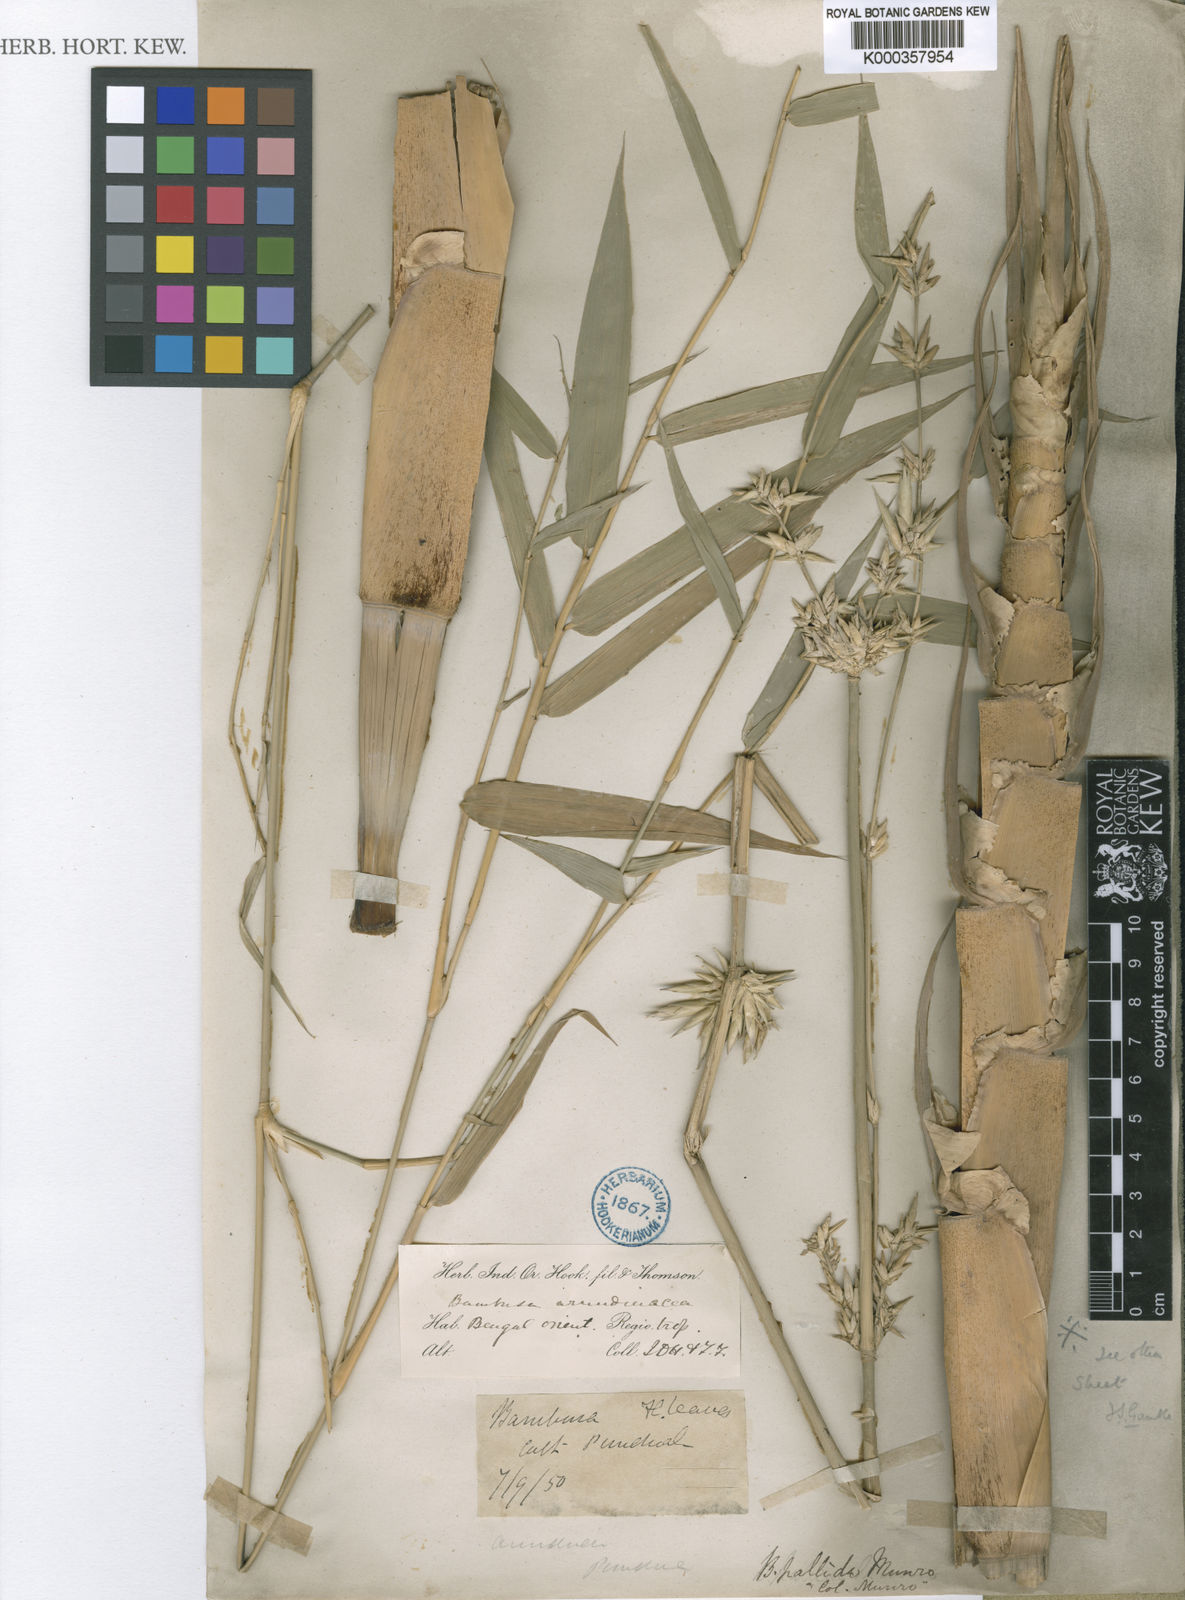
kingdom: Plantae
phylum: Tracheophyta
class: Liliopsida
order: Poales
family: Poaceae
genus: Bambusa
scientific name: Bambusa pallida
